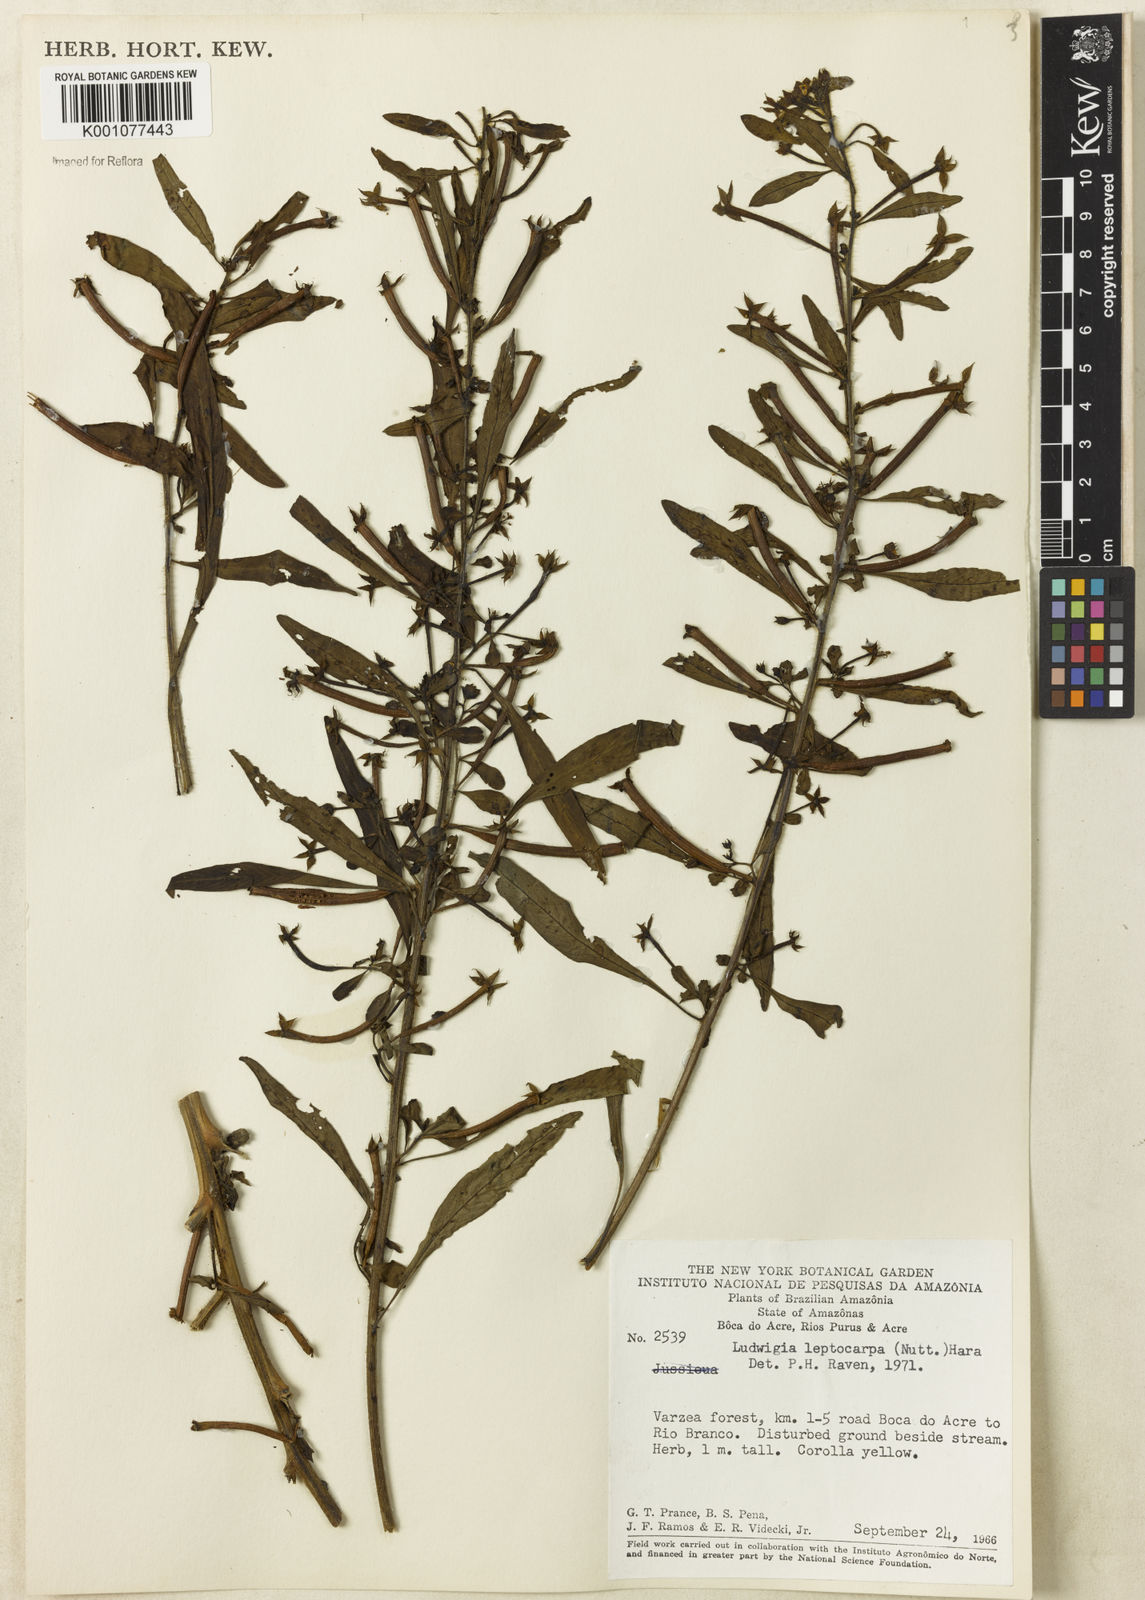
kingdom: Plantae
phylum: Tracheophyta
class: Magnoliopsida
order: Myrtales
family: Onagraceae
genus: Ludwigia
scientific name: Ludwigia leptocarpa
